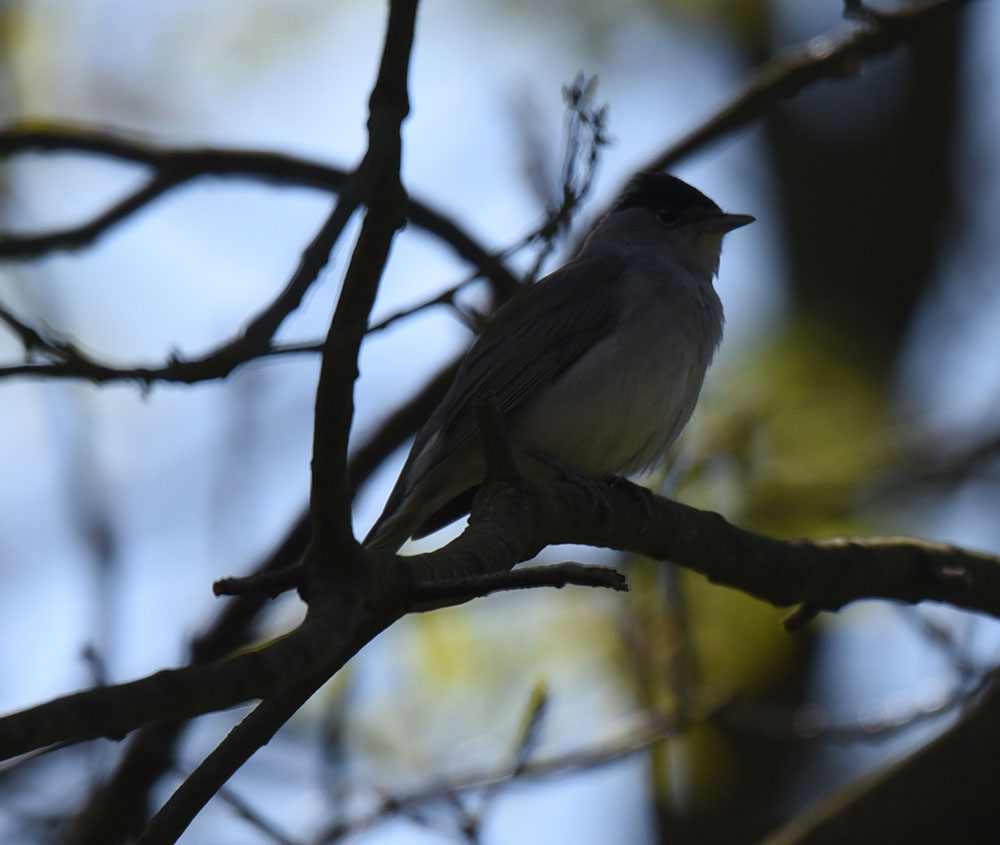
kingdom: Animalia
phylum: Chordata
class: Aves
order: Passeriformes
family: Sylviidae
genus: Sylvia
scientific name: Sylvia atricapilla
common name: Eurasian blackcap
